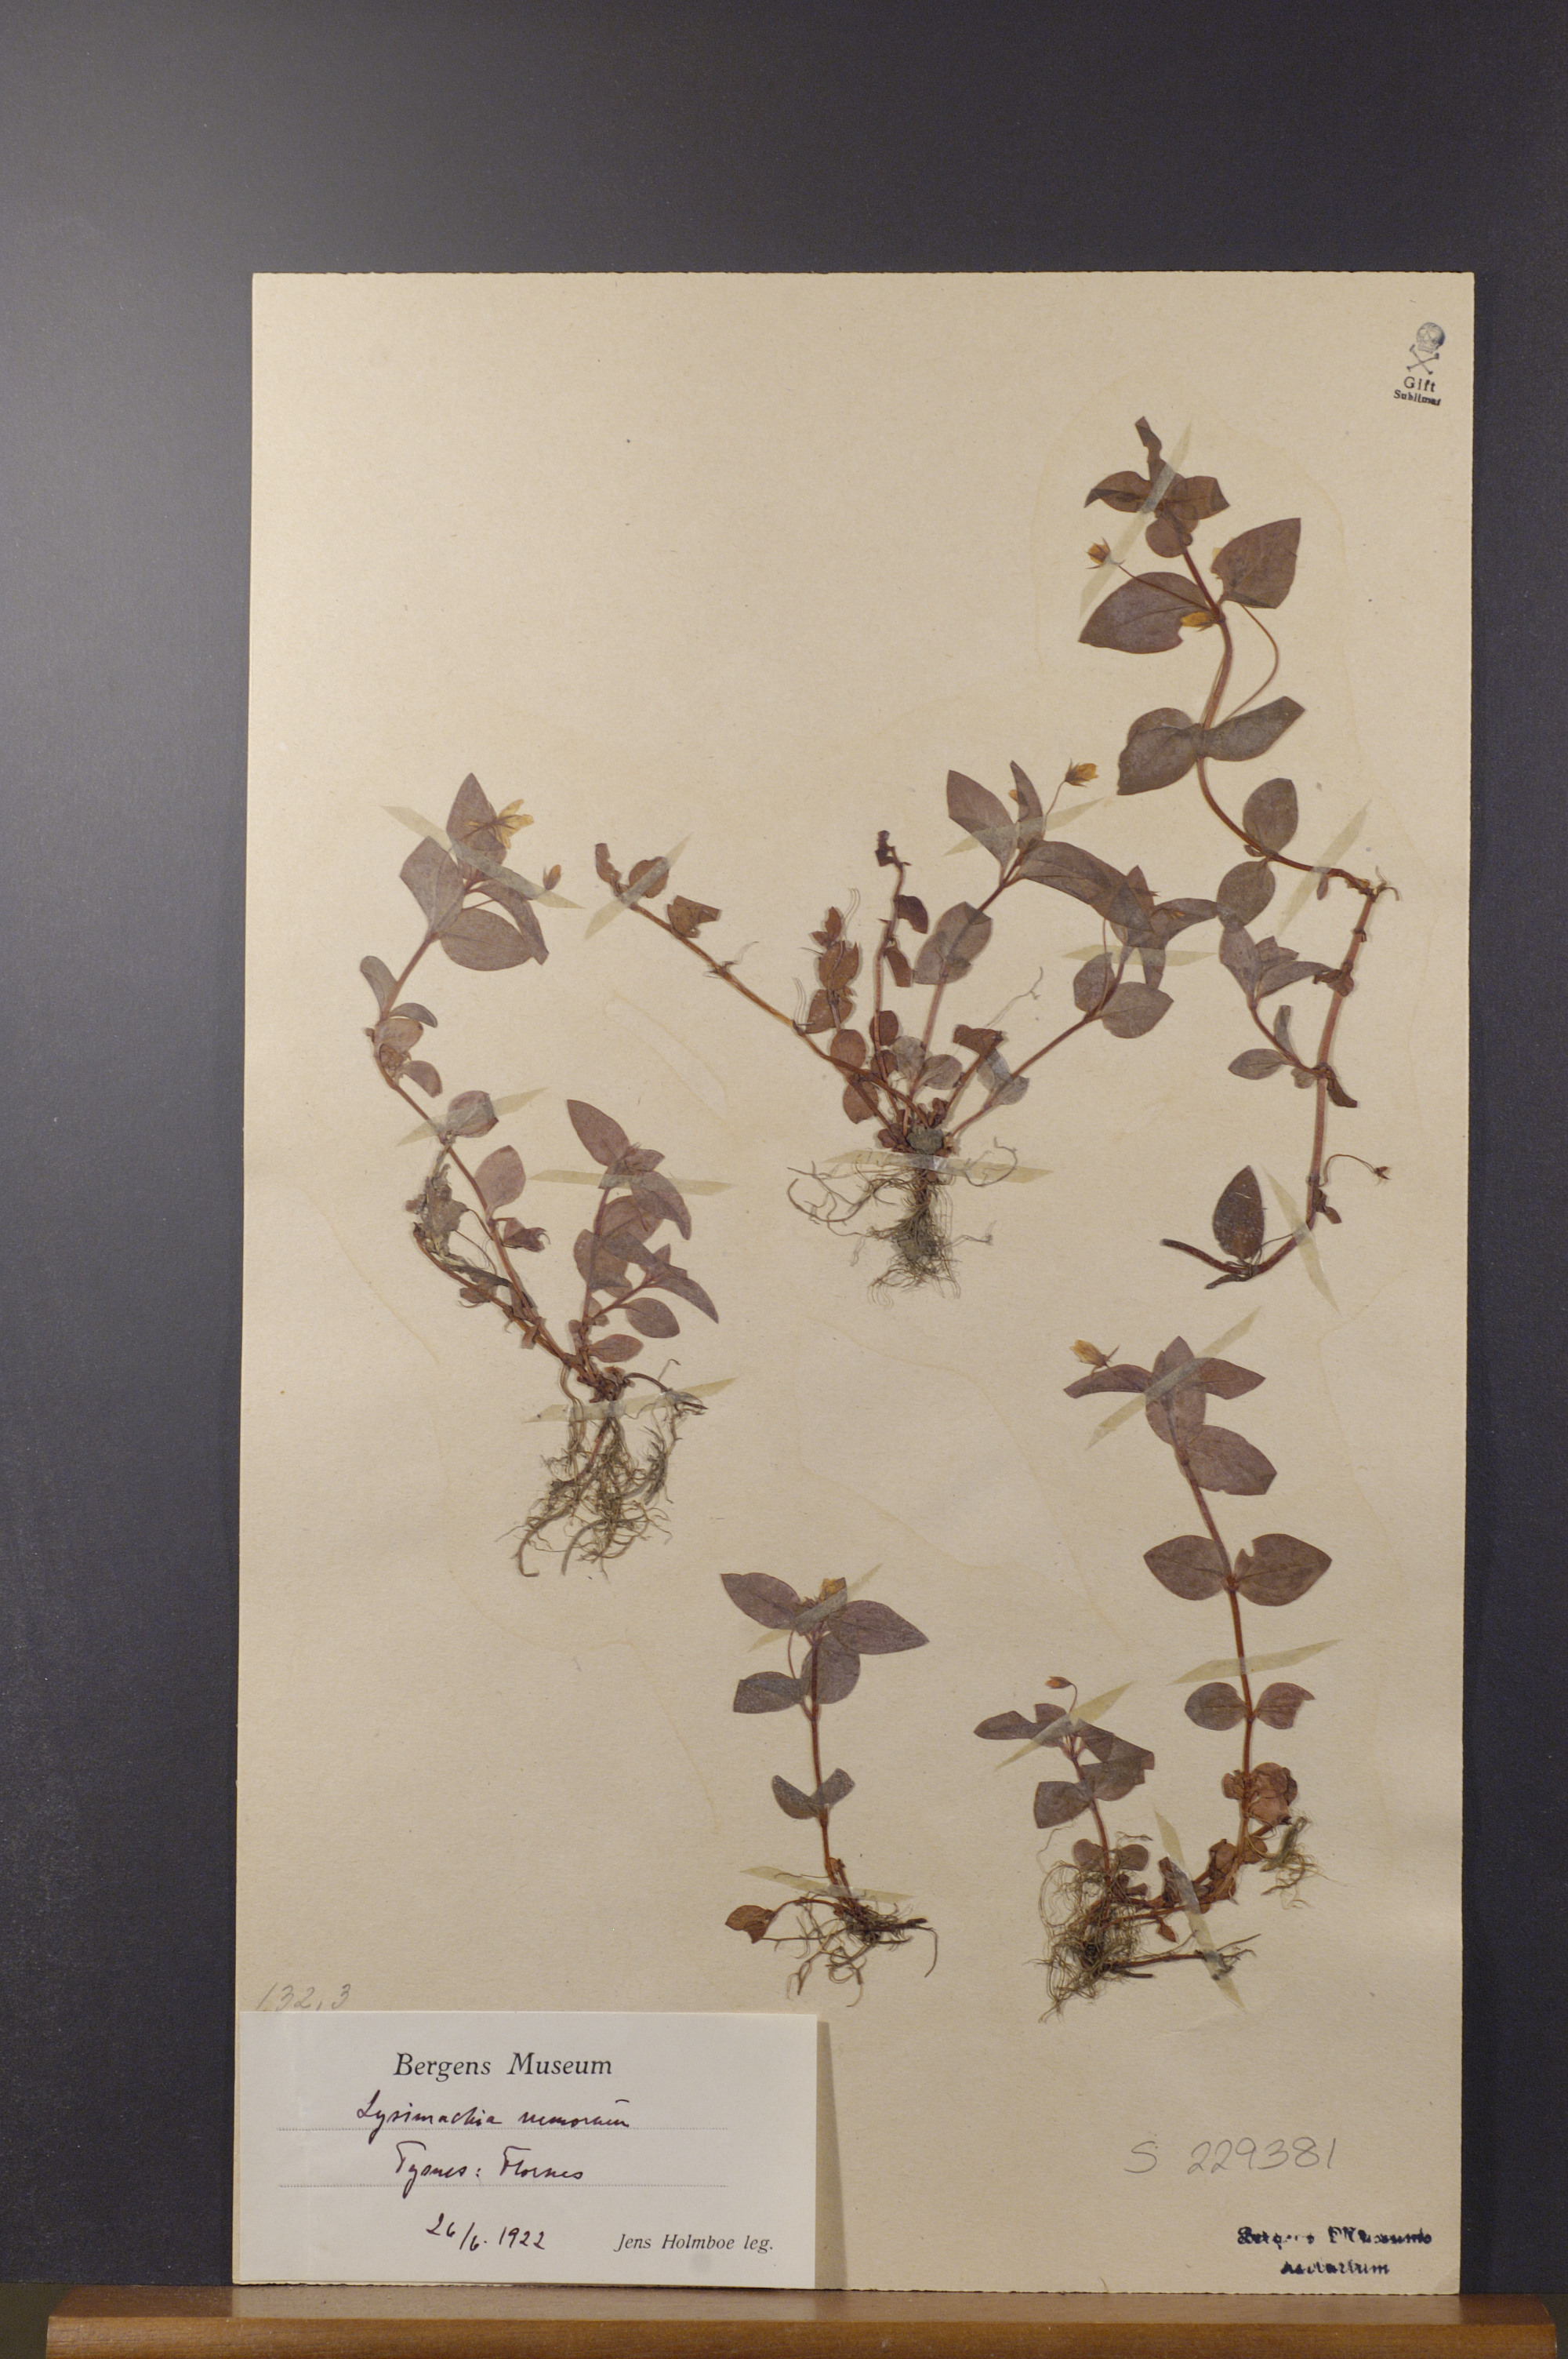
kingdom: Plantae
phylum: Tracheophyta
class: Magnoliopsida
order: Ericales
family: Primulaceae
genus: Lysimachia
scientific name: Lysimachia nemorum
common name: Yellow pimpernel
